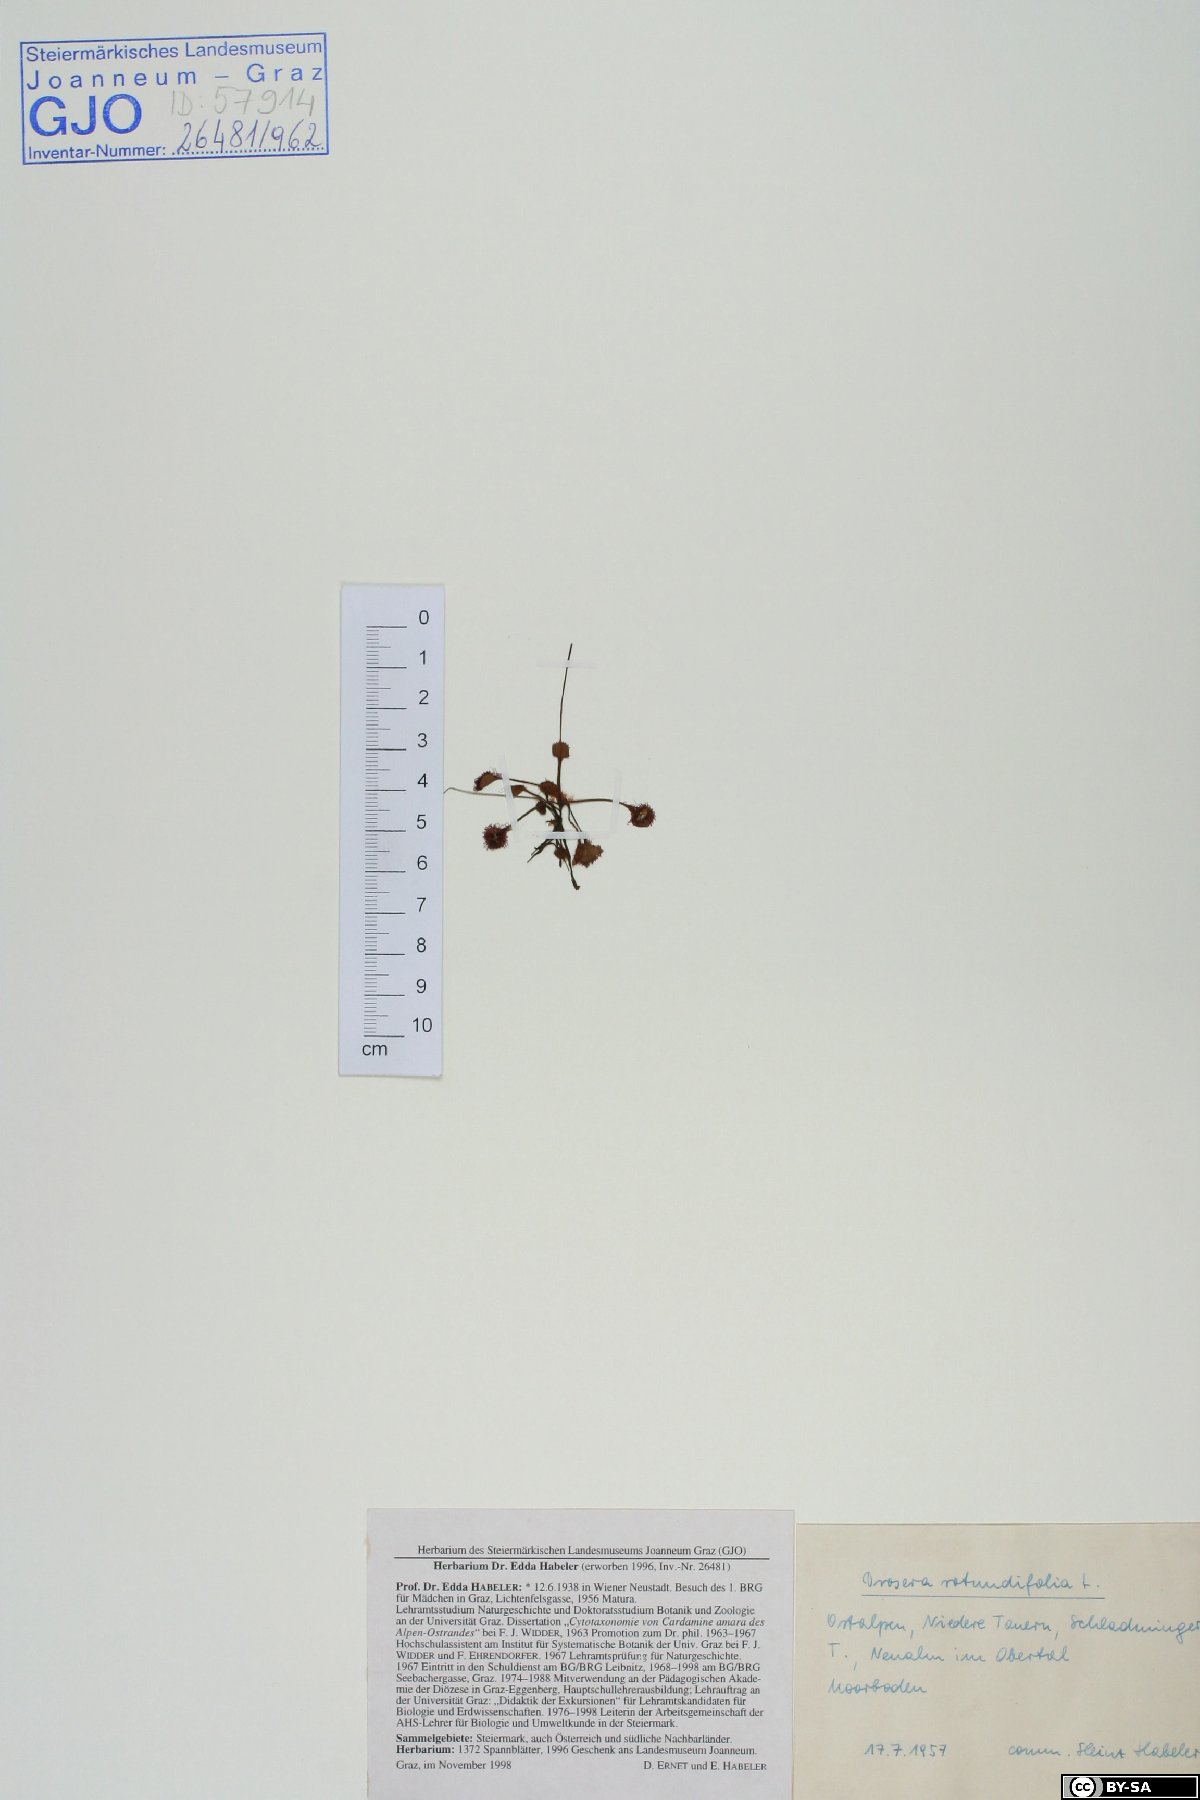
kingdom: Plantae
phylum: Tracheophyta
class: Magnoliopsida
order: Caryophyllales
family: Droseraceae
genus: Drosera
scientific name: Drosera rotundifolia
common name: Round-leaved sundew
